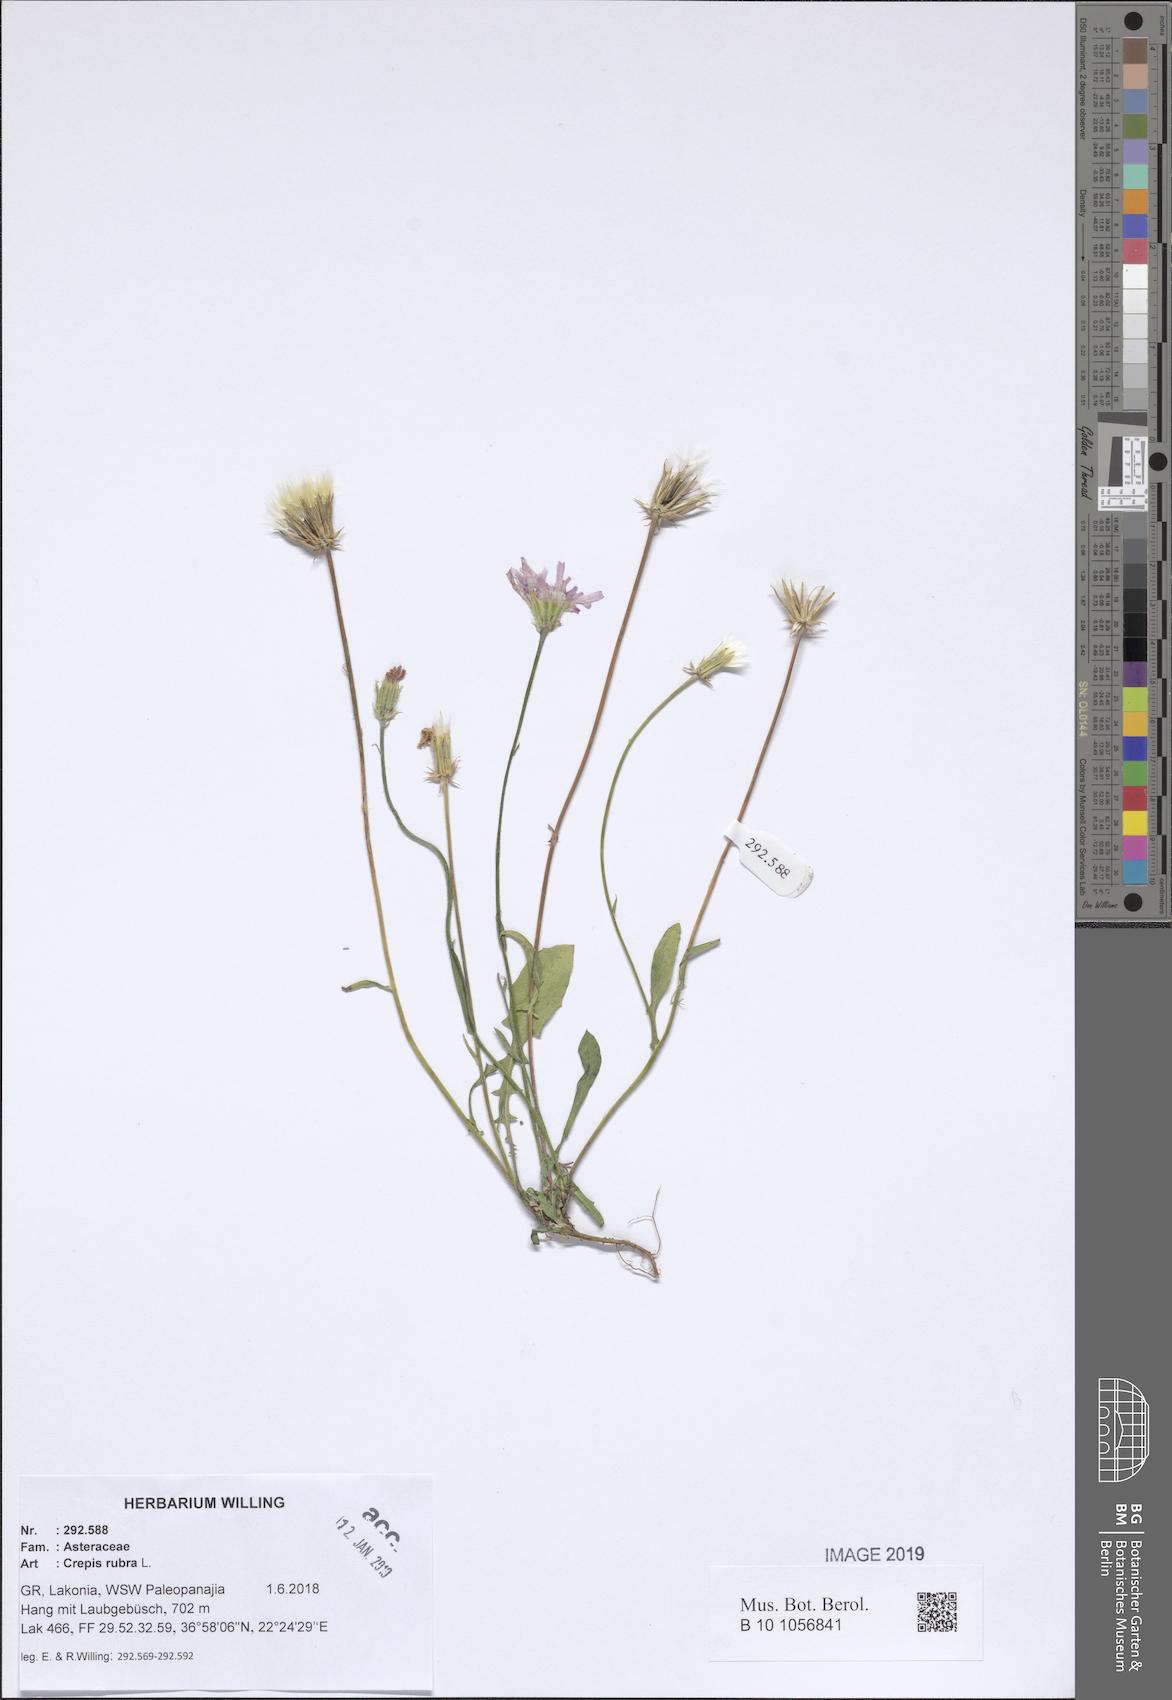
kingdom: Plantae
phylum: Tracheophyta
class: Magnoliopsida
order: Asterales
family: Asteraceae
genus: Crepis
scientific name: Crepis rubra
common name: Pink hawk's-beard
